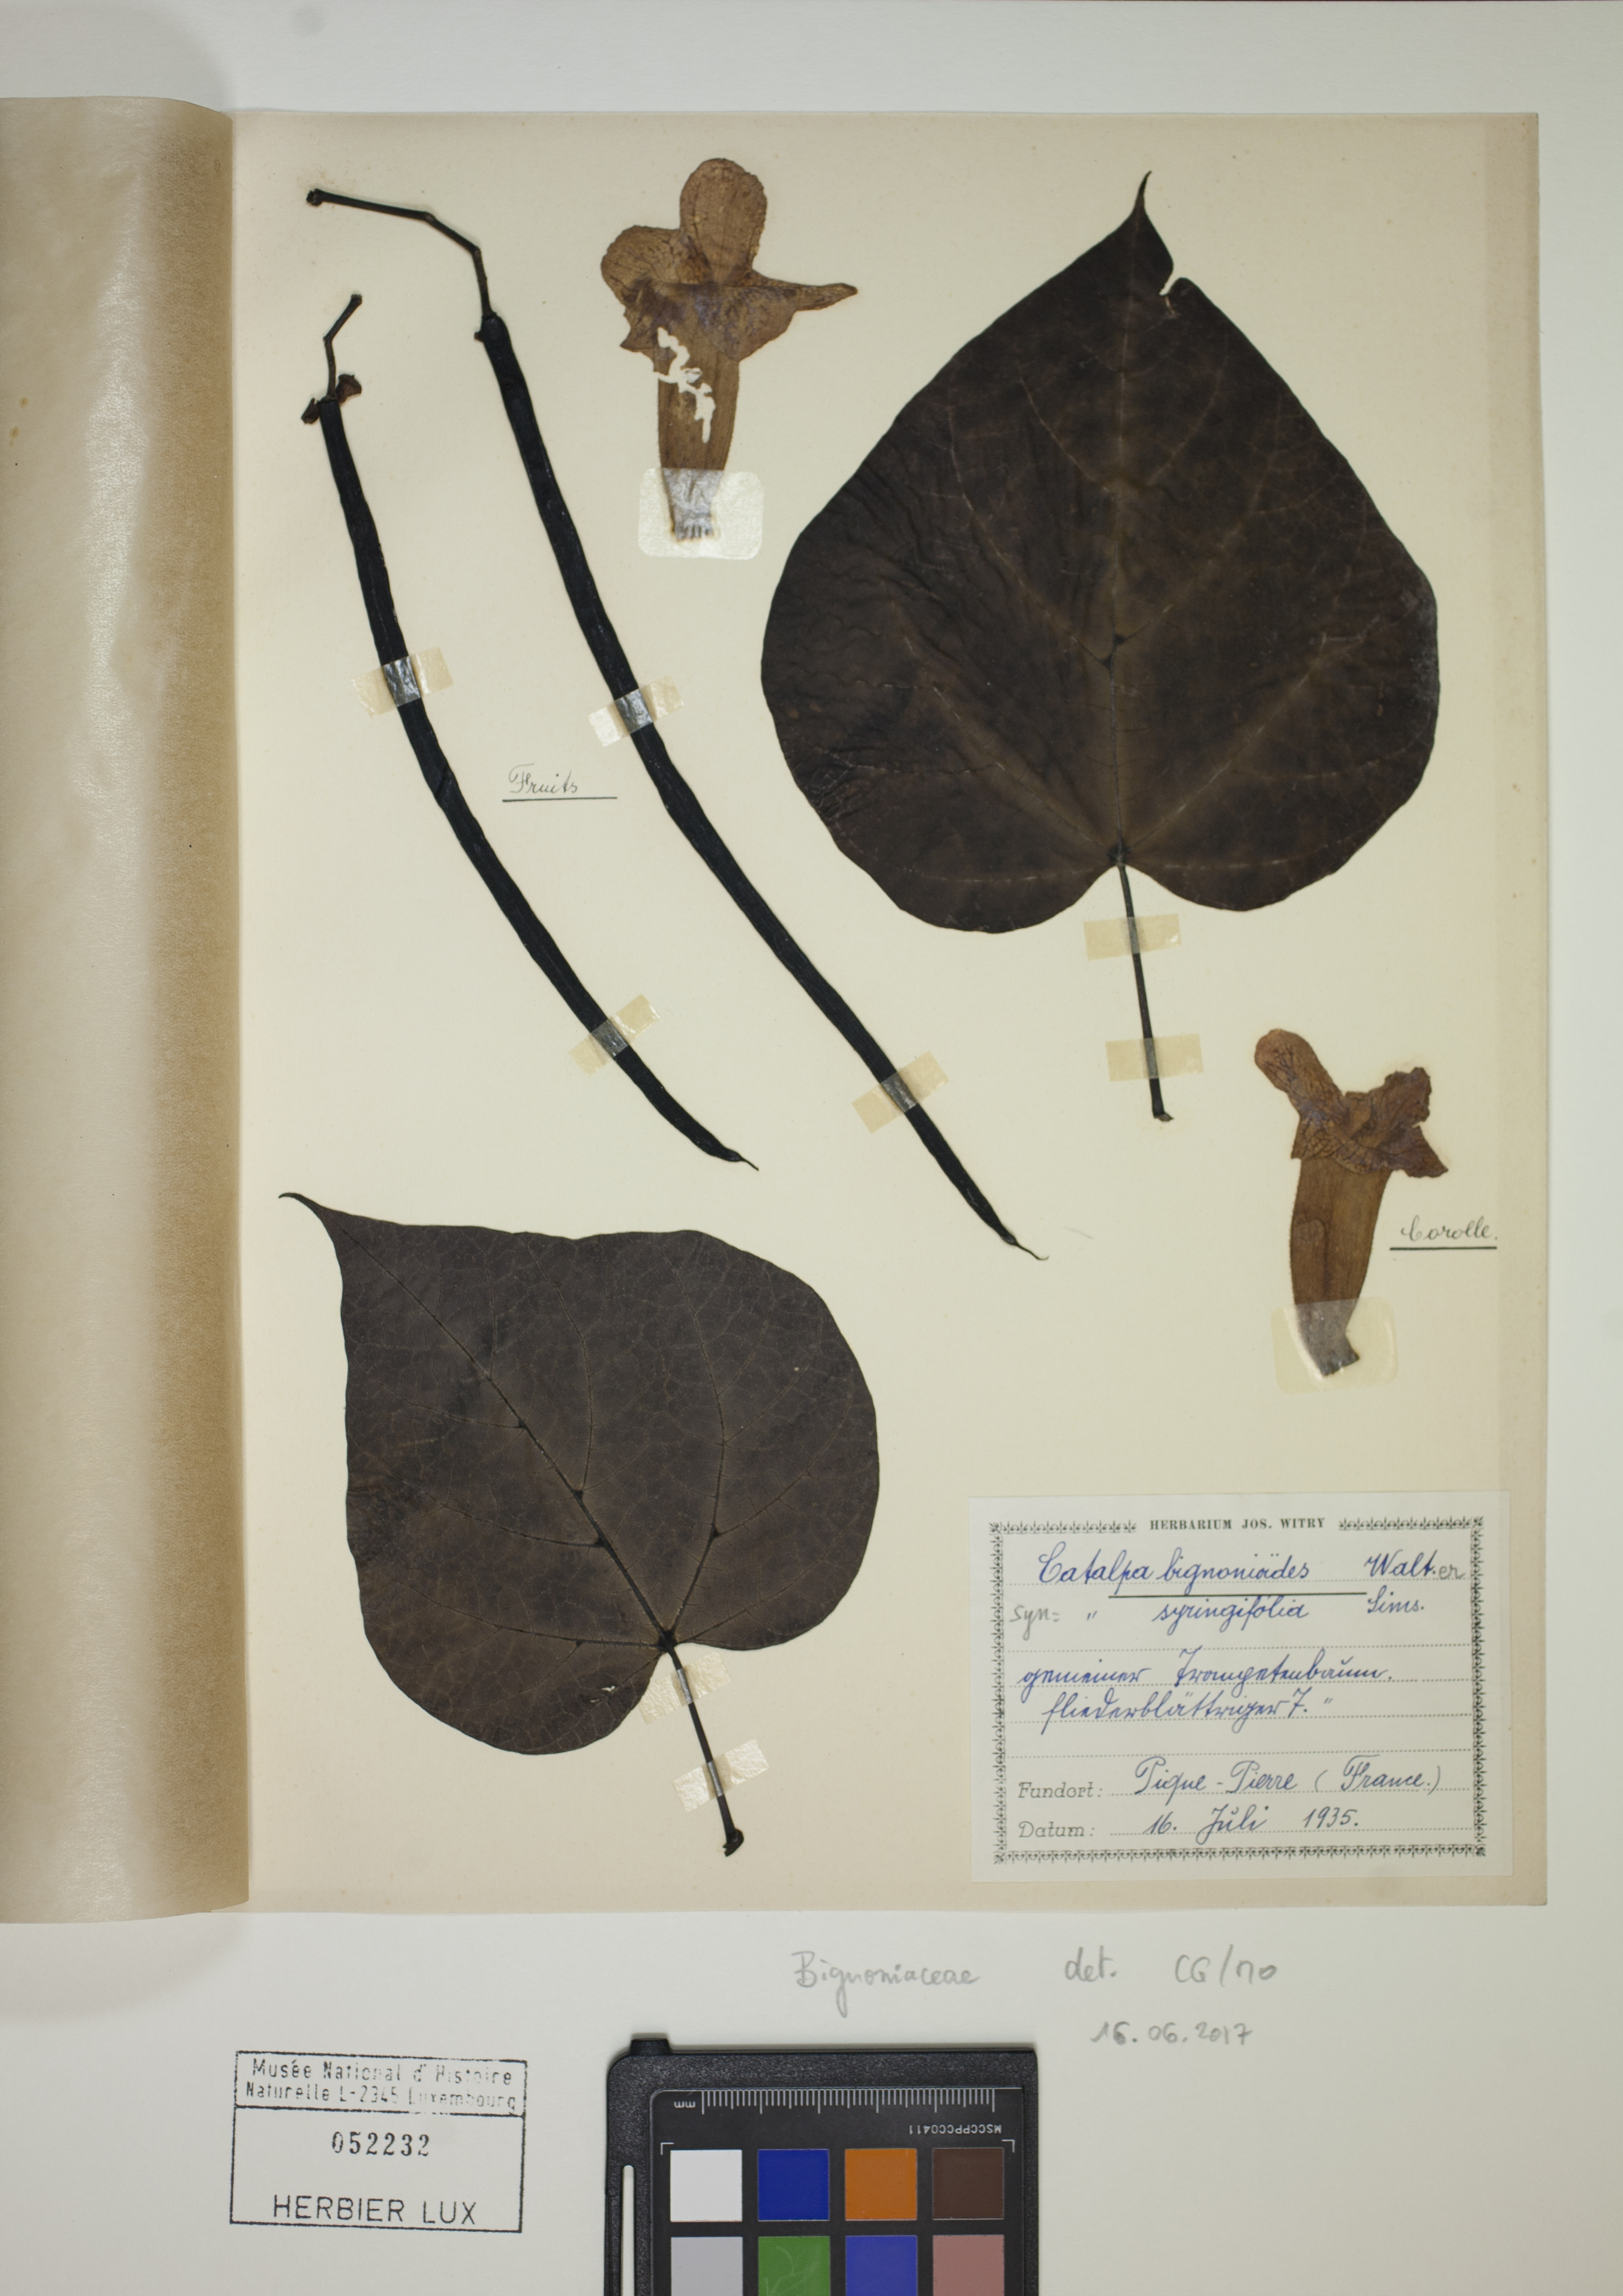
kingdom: Plantae
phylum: Tracheophyta
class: Magnoliopsida
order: Lamiales
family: Bignoniaceae
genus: Catalpa
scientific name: Catalpa bignonioides
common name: Southern catalpa
